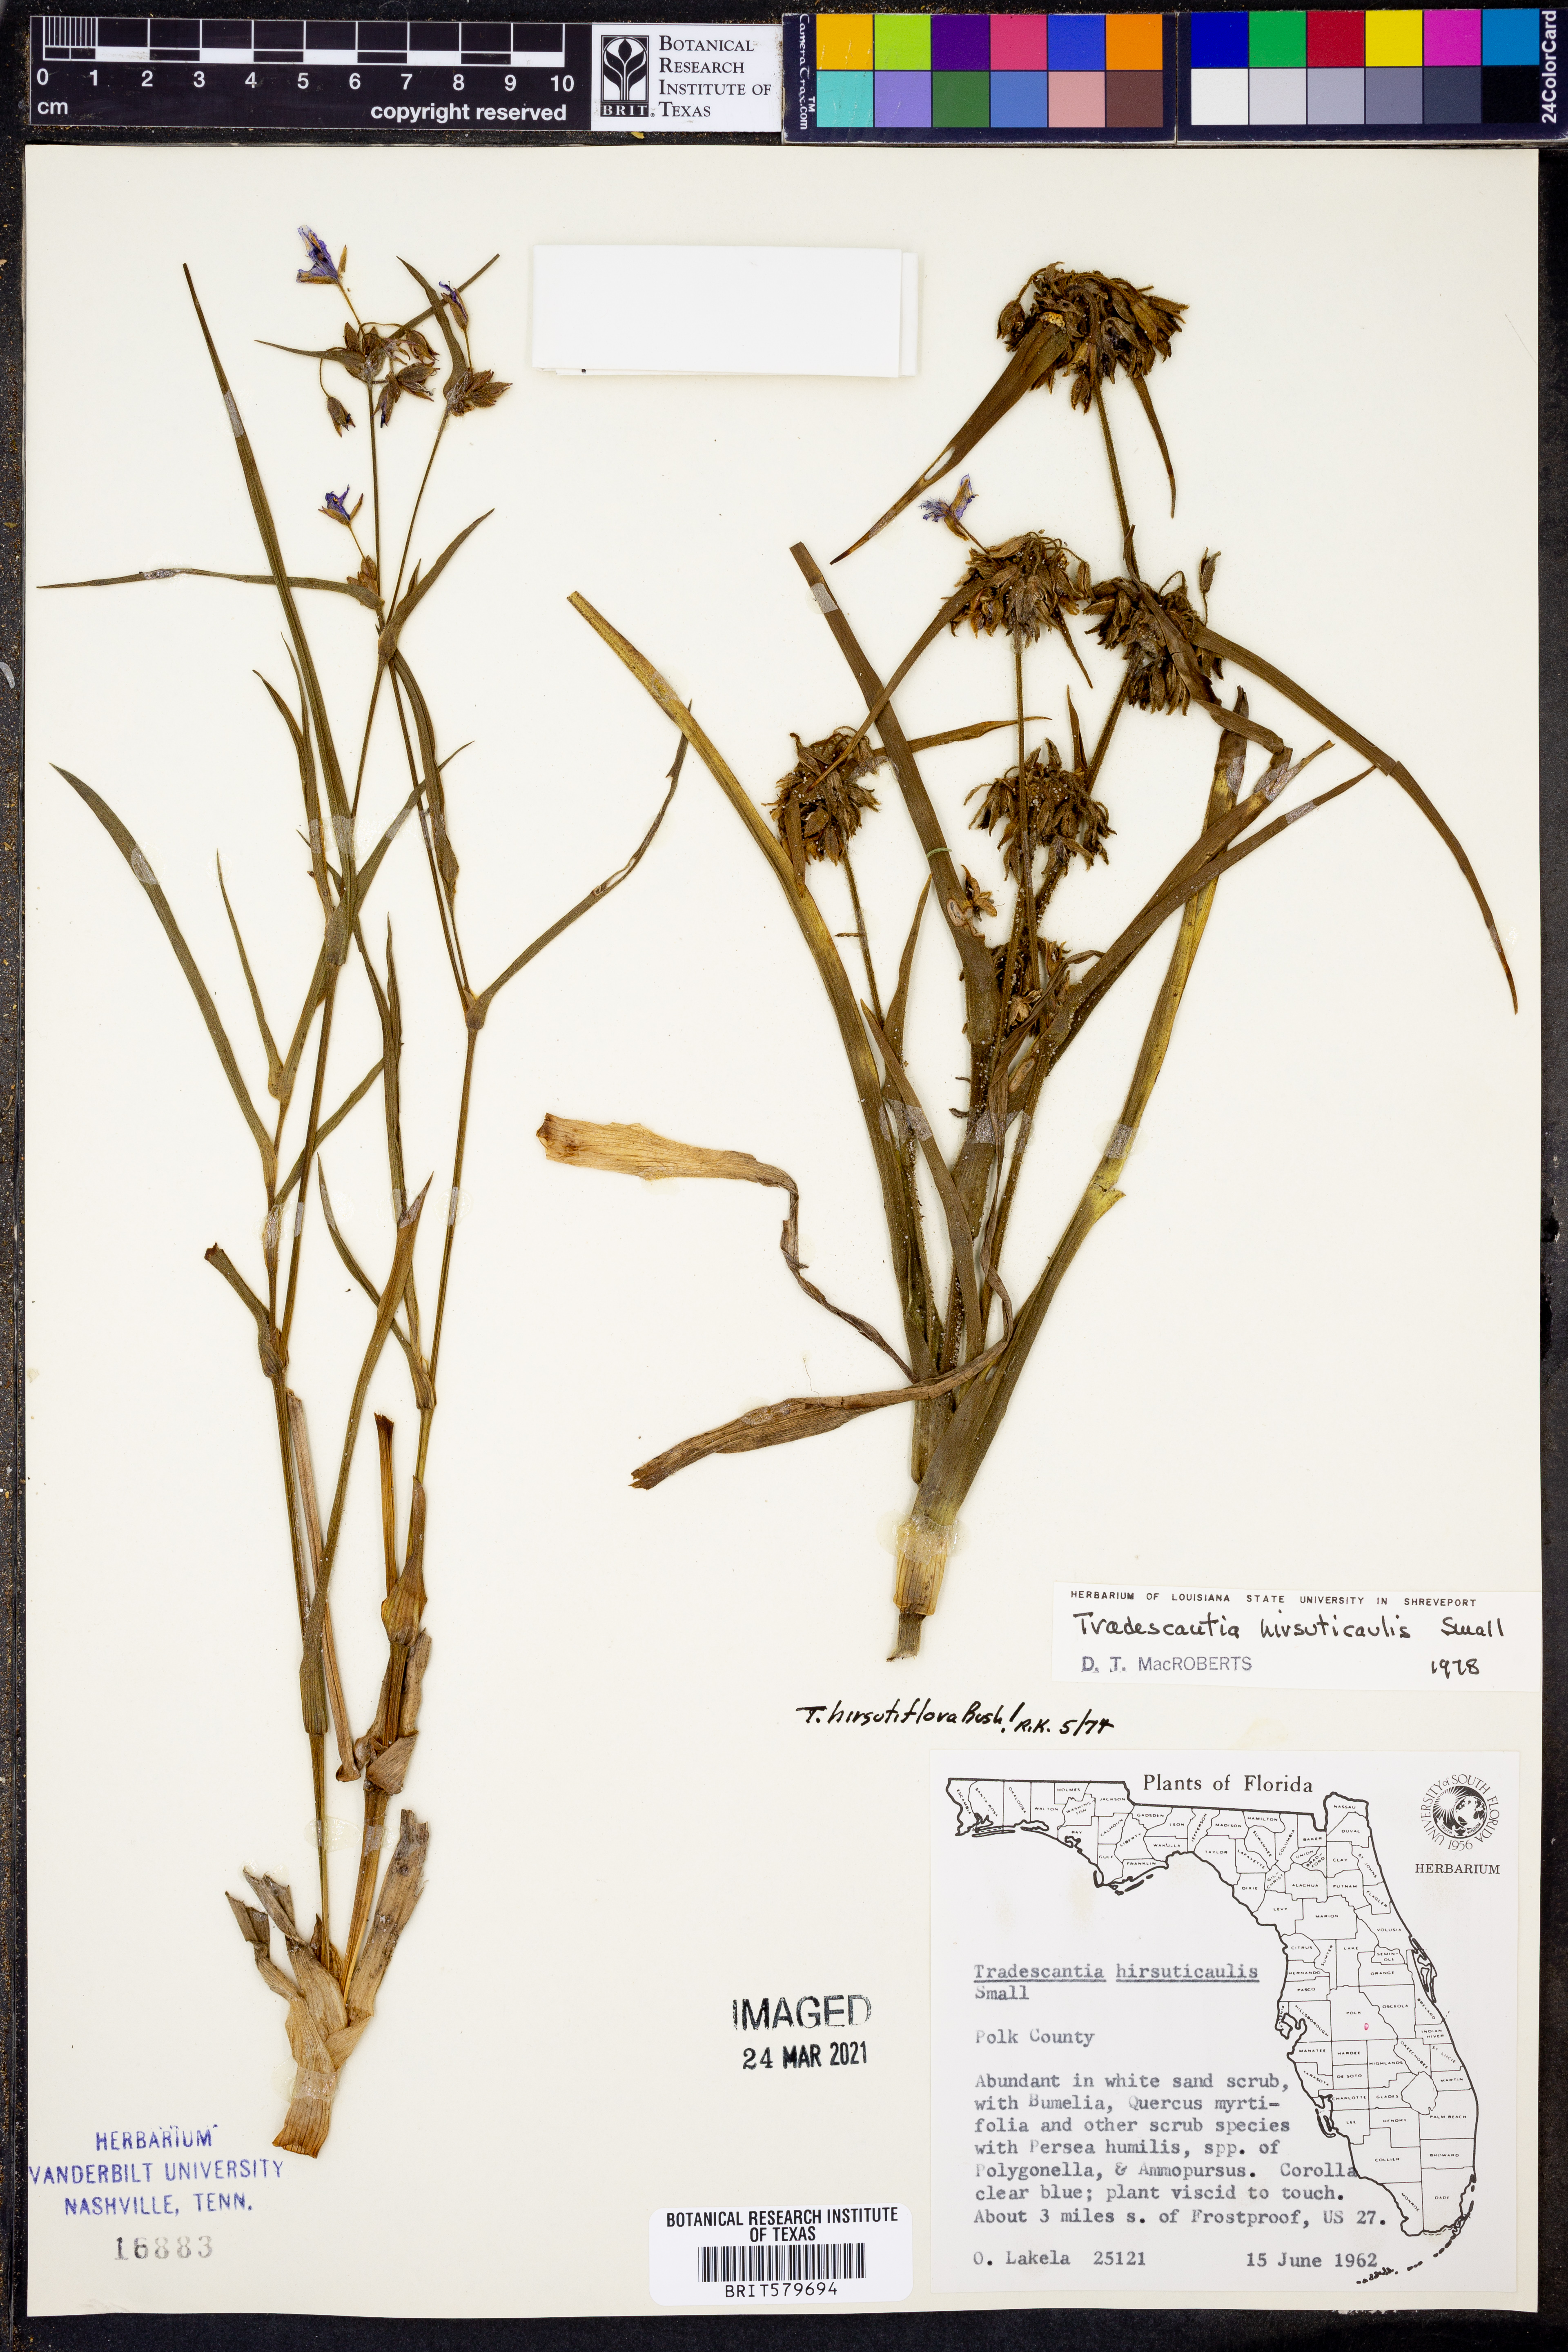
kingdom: Plantae
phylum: Tracheophyta
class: Liliopsida
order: Commelinales
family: Commelinaceae
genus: Tradescantia
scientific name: Tradescantia hirsuticaulis
